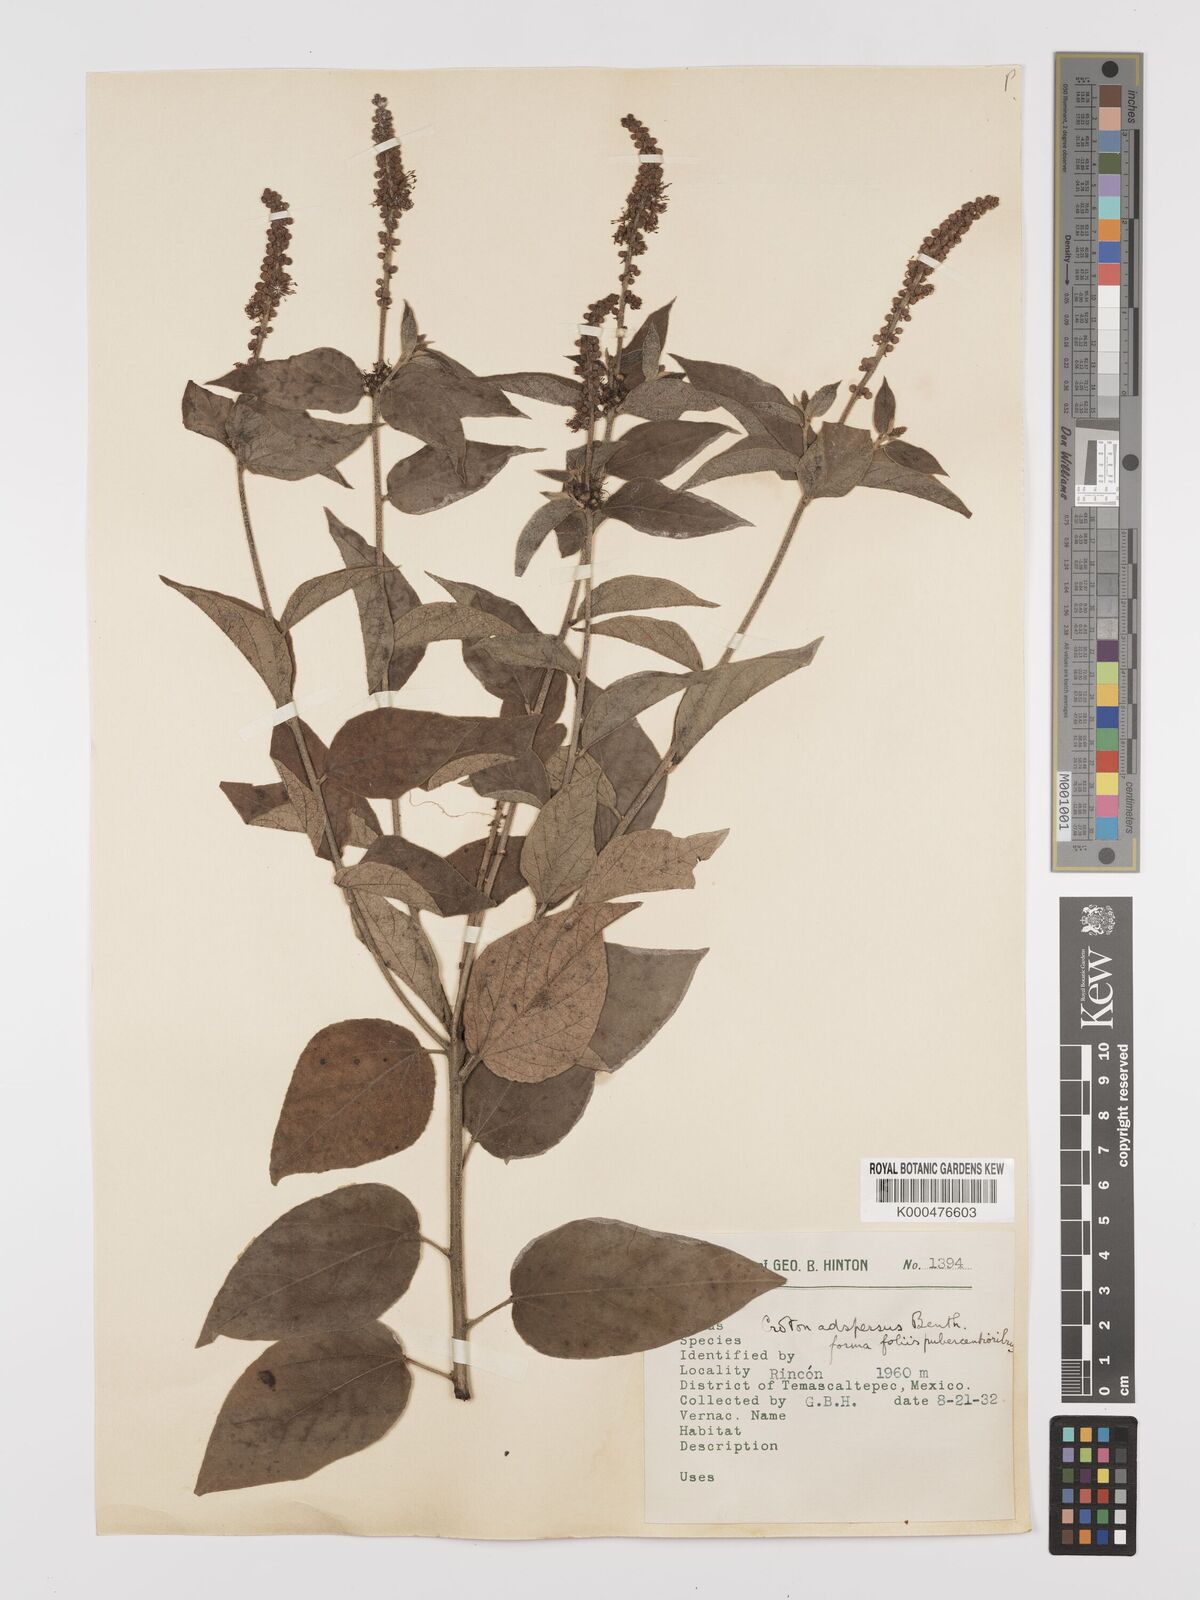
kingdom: Plantae
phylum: Tracheophyta
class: Magnoliopsida
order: Malpighiales
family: Euphorbiaceae
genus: Croton
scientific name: Croton adspersus
